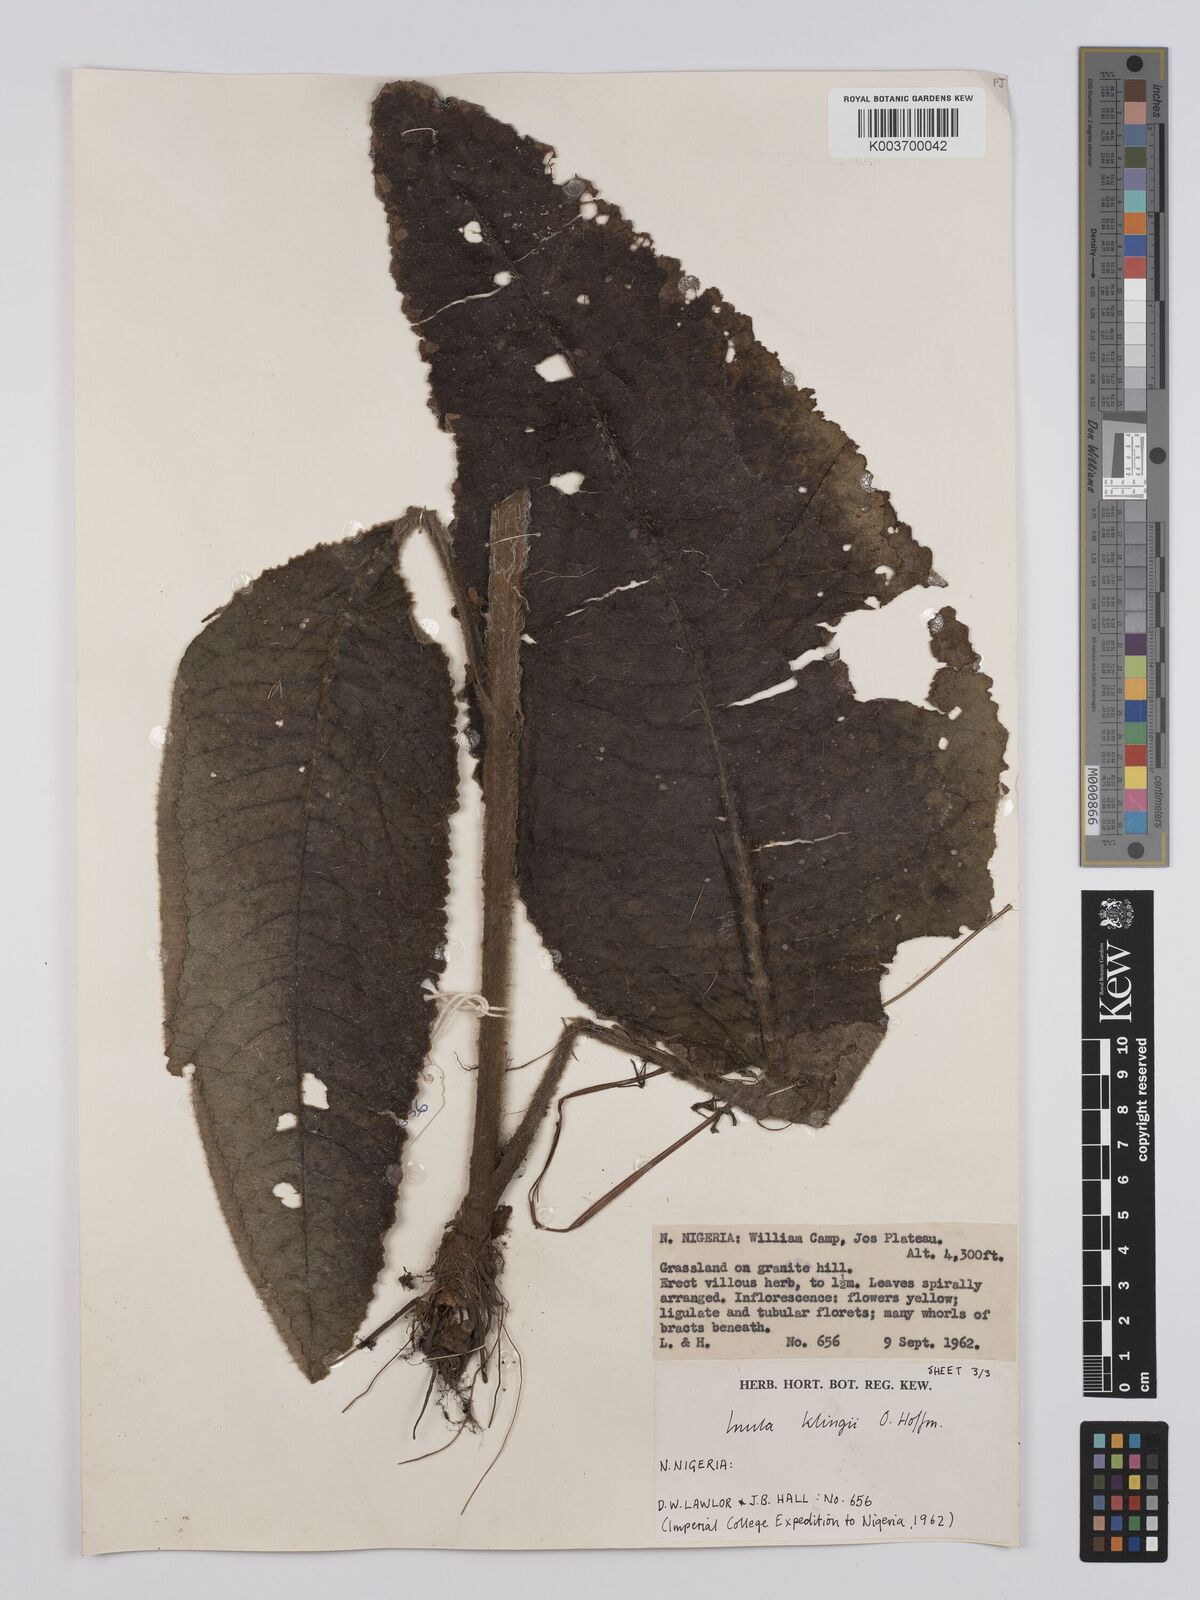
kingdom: Plantae
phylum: Tracheophyta
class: Magnoliopsida
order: Asterales
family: Asteraceae
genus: Inula
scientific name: Inula klingii
